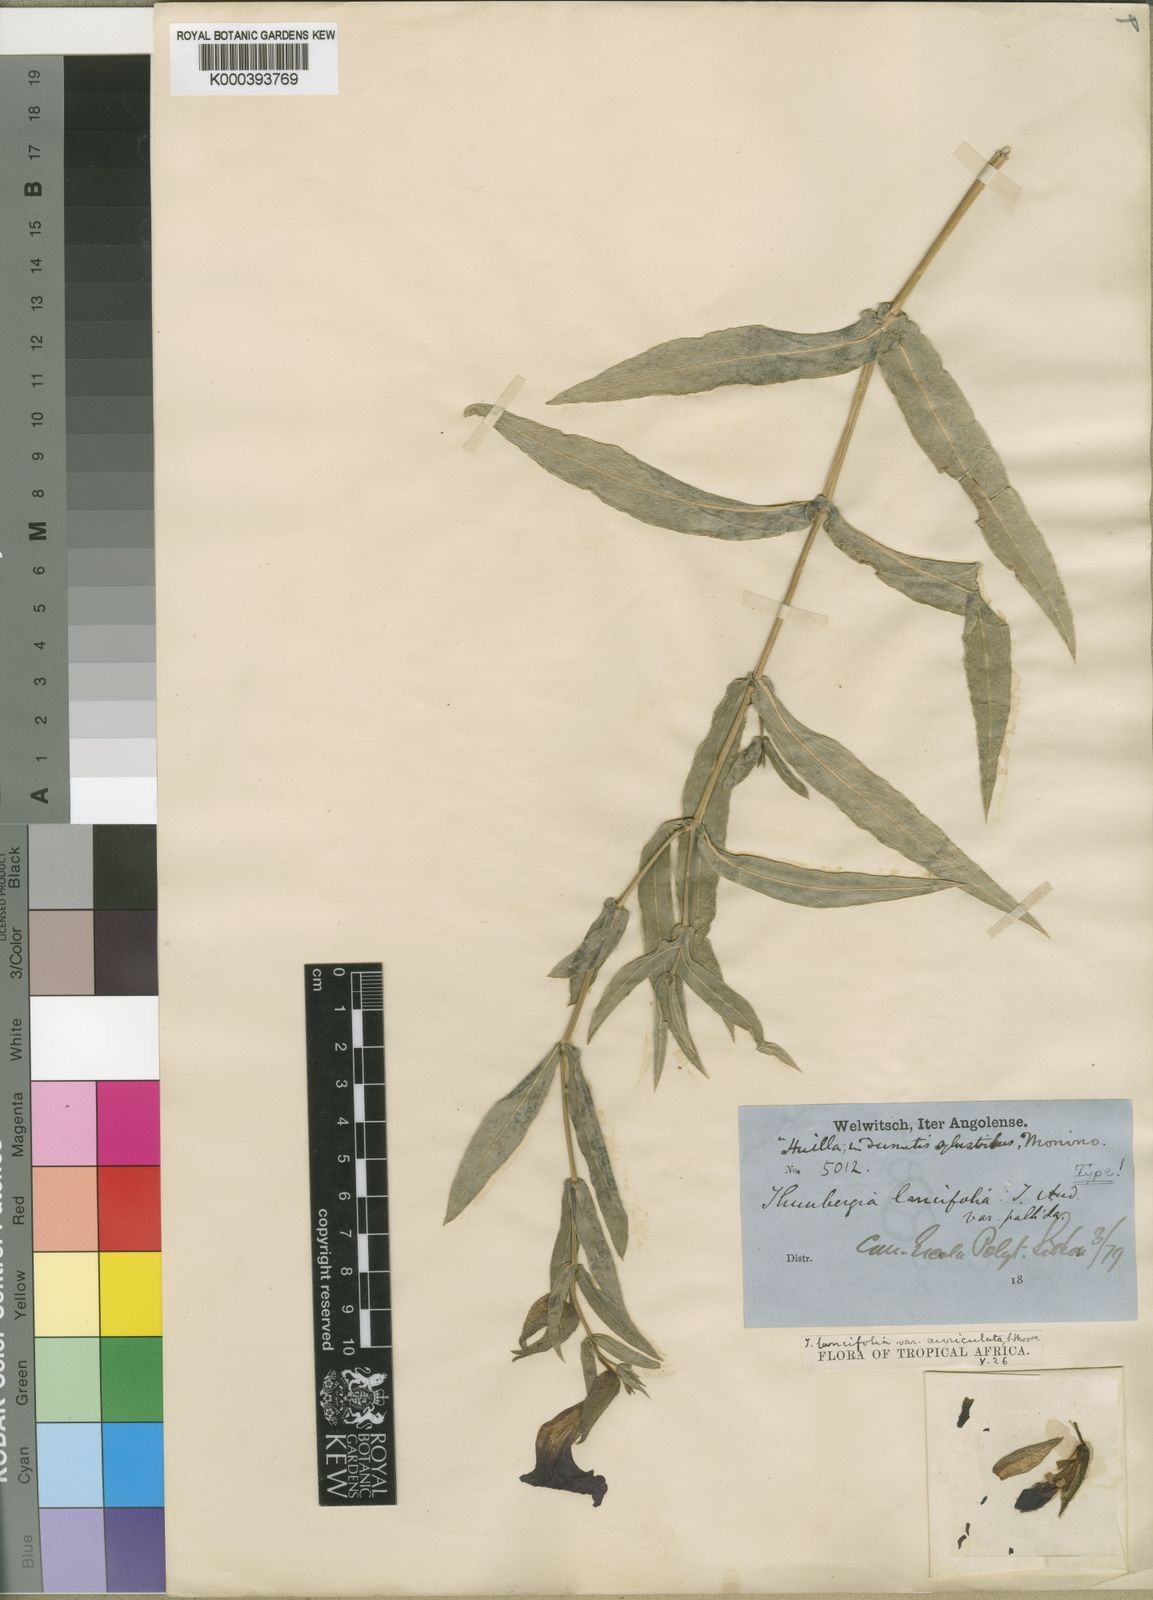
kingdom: Plantae
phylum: Tracheophyta
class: Magnoliopsida
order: Lamiales
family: Acanthaceae
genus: Thunbergia
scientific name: Thunbergia lancifolia
